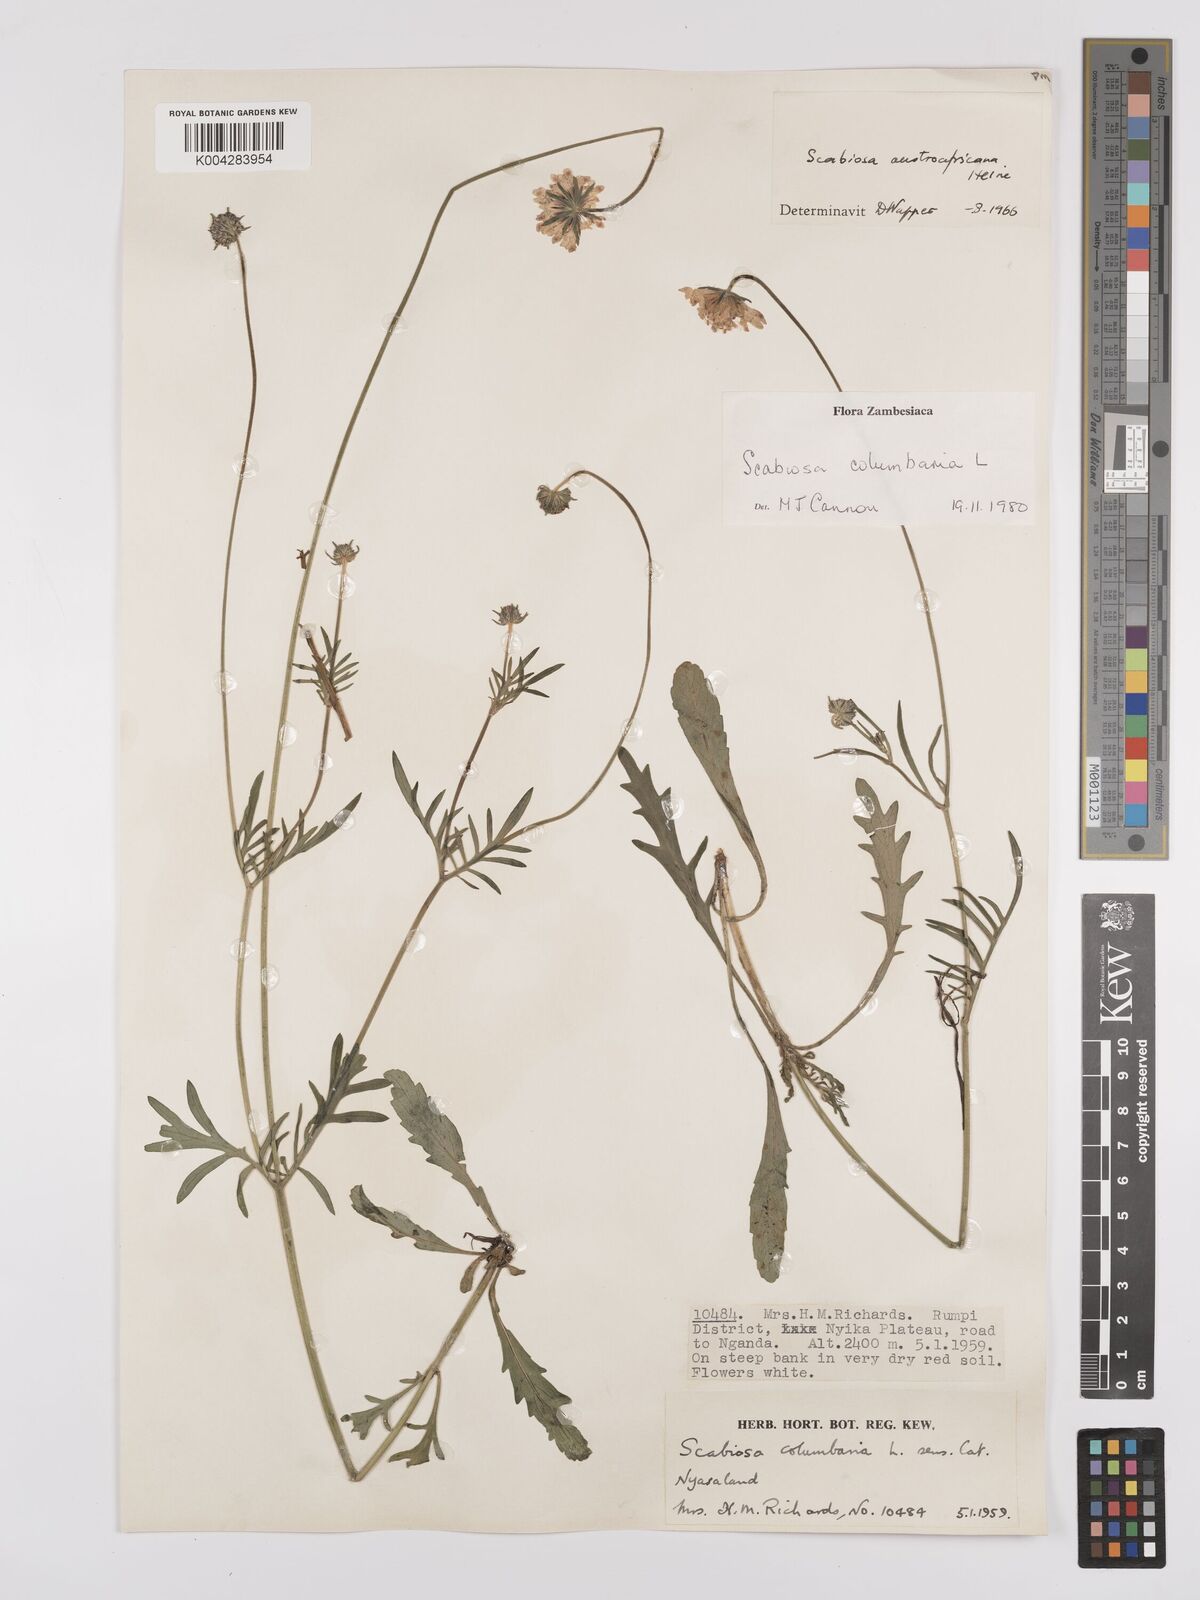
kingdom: Plantae
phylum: Tracheophyta
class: Magnoliopsida
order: Dipsacales
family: Caprifoliaceae
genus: Scabiosa
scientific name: Scabiosa austroafricana
